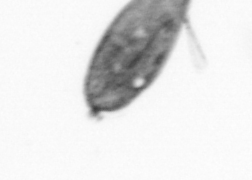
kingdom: Animalia
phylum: Arthropoda
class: Maxillopoda
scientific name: Maxillopoda
